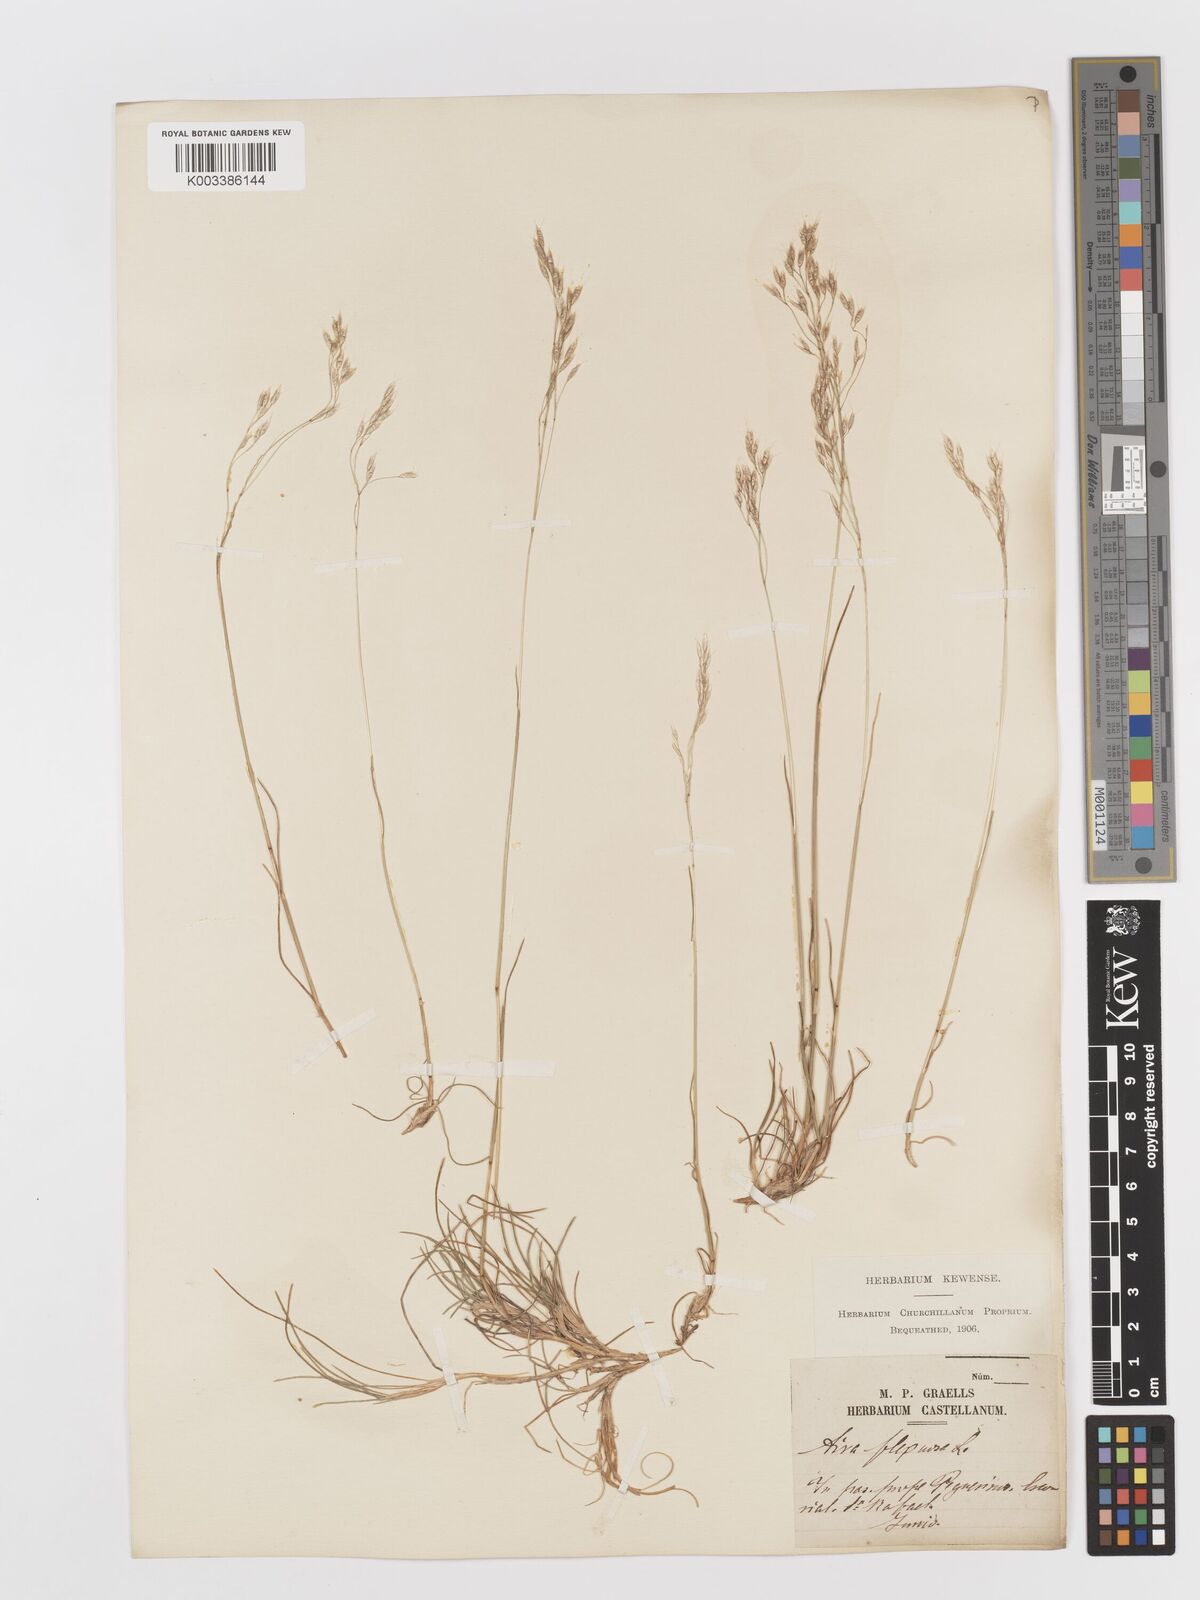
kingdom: Plantae
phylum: Tracheophyta
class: Liliopsida
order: Poales
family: Poaceae
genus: Avenella
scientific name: Avenella flexuosa
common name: Wavy hairgrass
